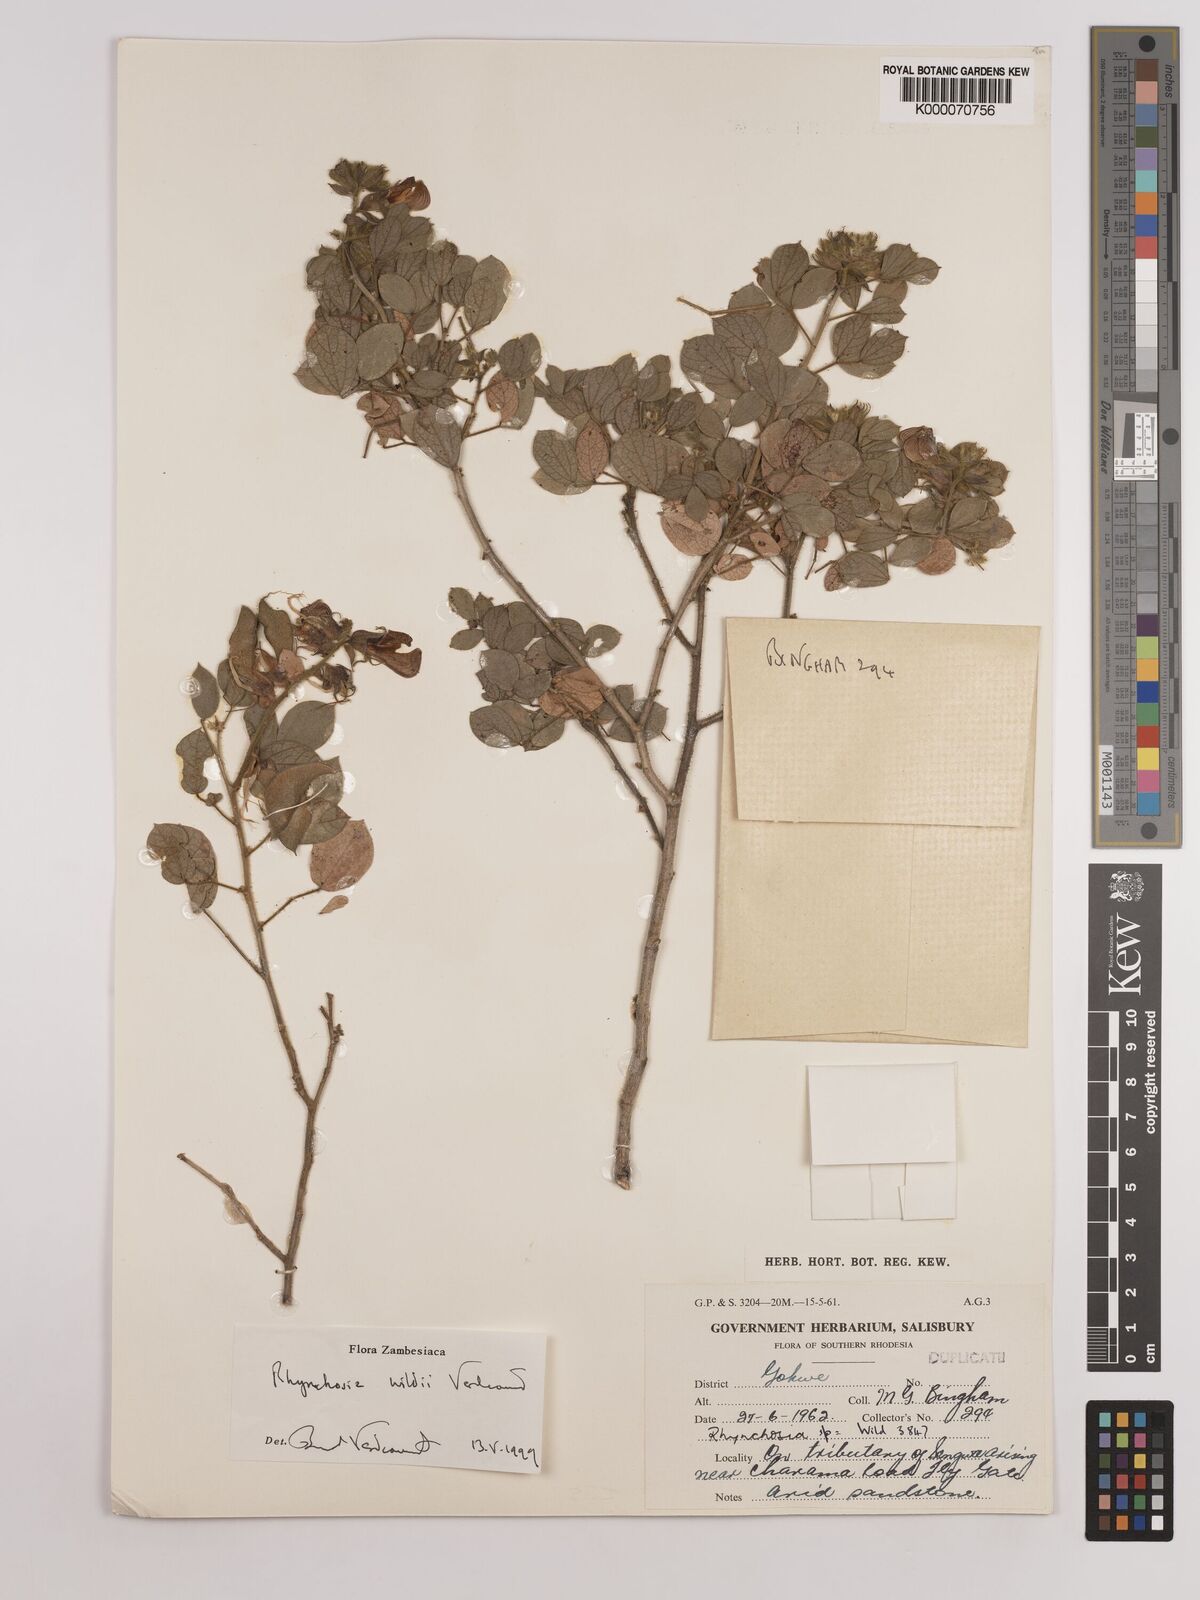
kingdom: Plantae
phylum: Tracheophyta
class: Magnoliopsida
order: Fabales
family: Fabaceae
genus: Rhynchosia
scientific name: Rhynchosia wildii
